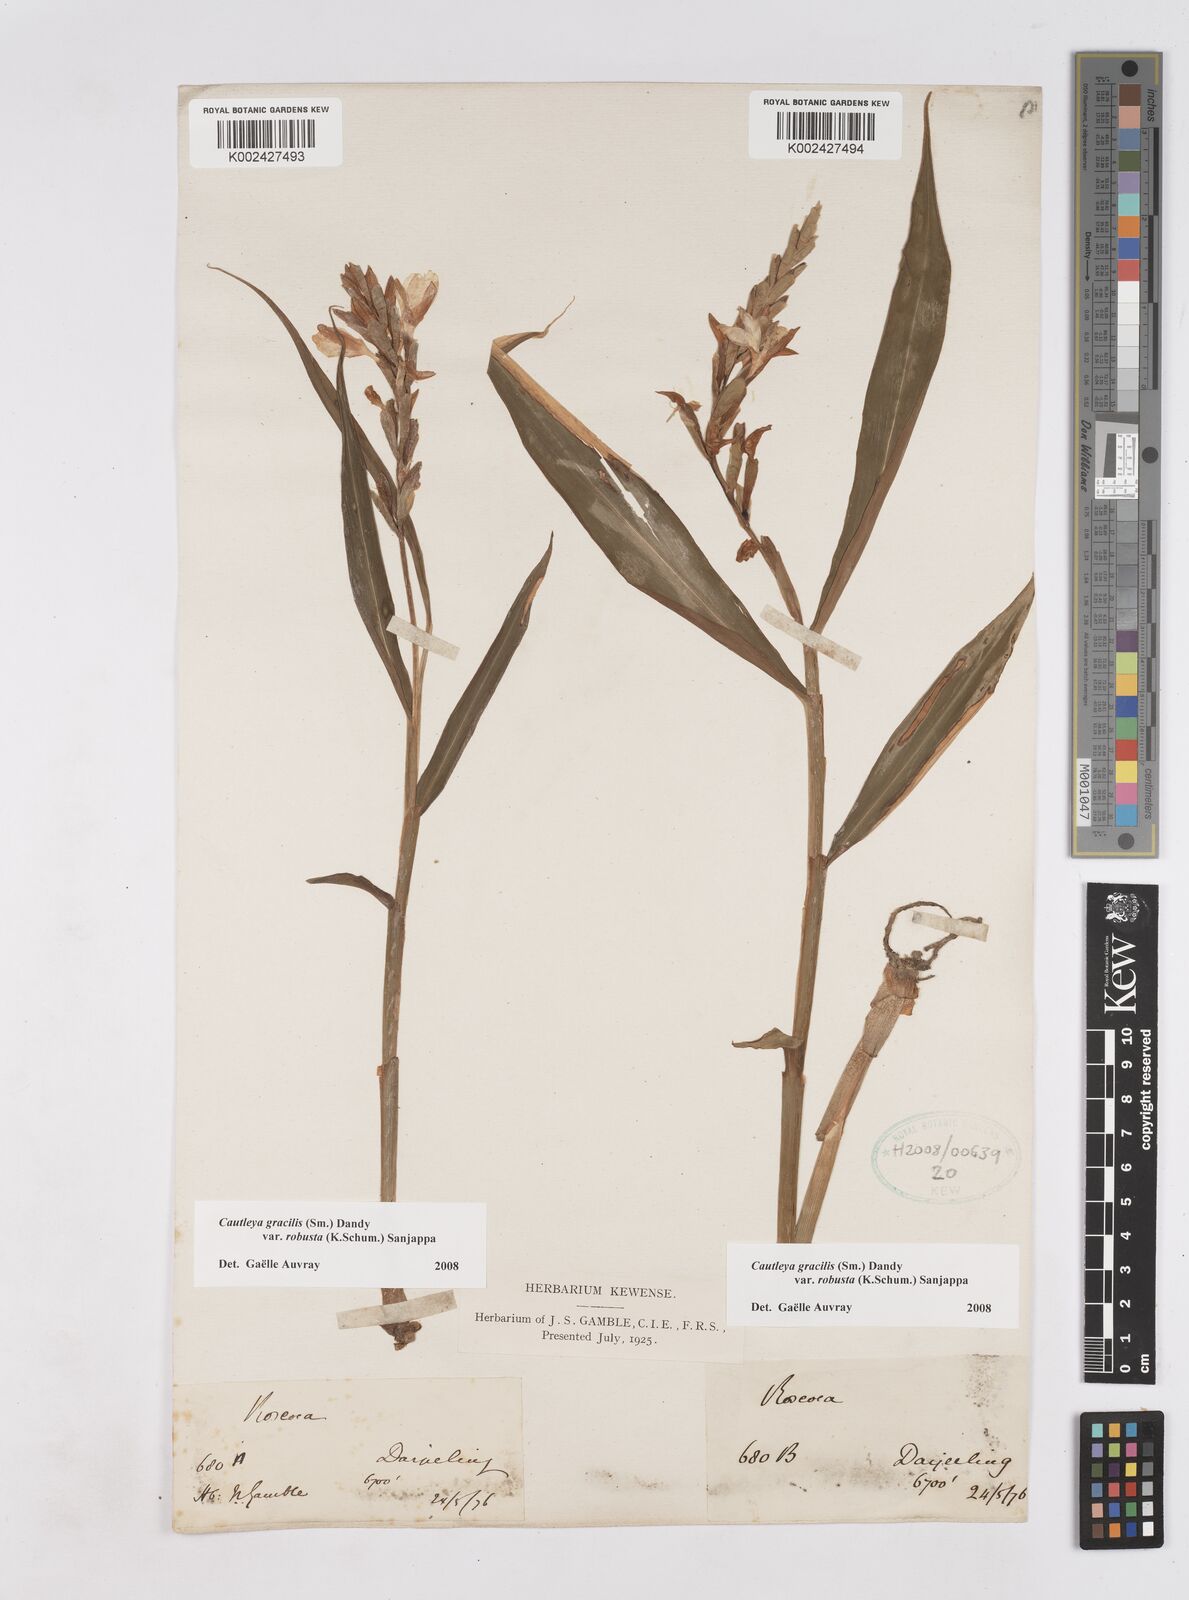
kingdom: Plantae
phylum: Tracheophyta
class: Liliopsida
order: Zingiberales
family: Zingiberaceae
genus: Cautleya
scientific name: Cautleya gracilis
